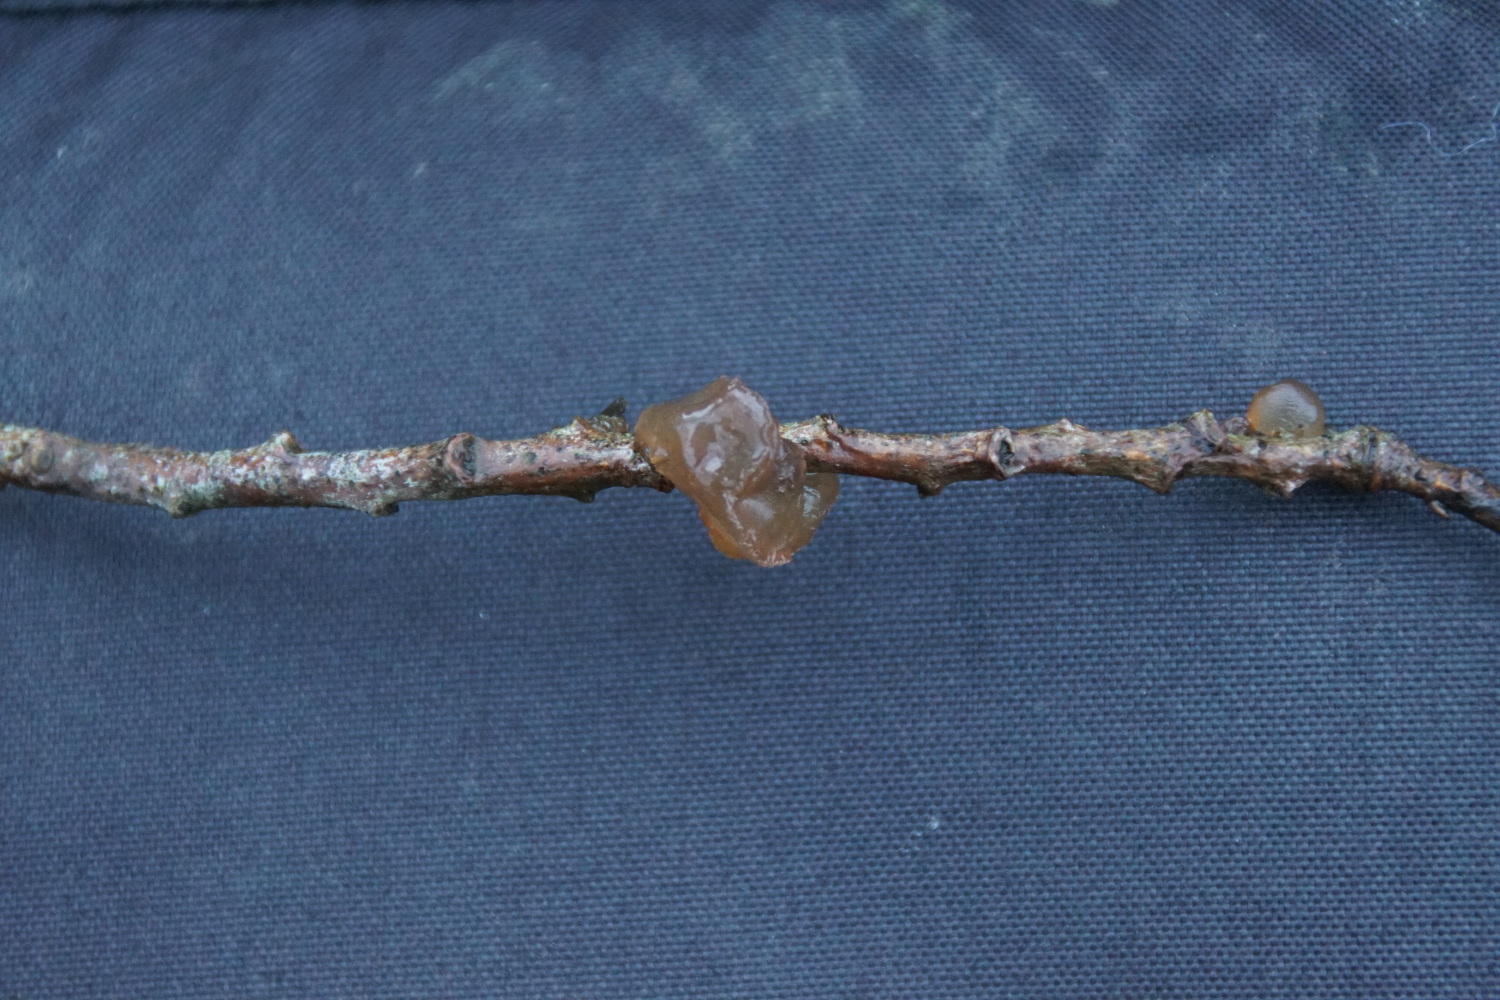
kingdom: Fungi
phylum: Basidiomycota
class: Agaricomycetes
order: Auriculariales
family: Auriculariaceae
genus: Exidia
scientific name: Exidia recisa
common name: pile-bævretop
